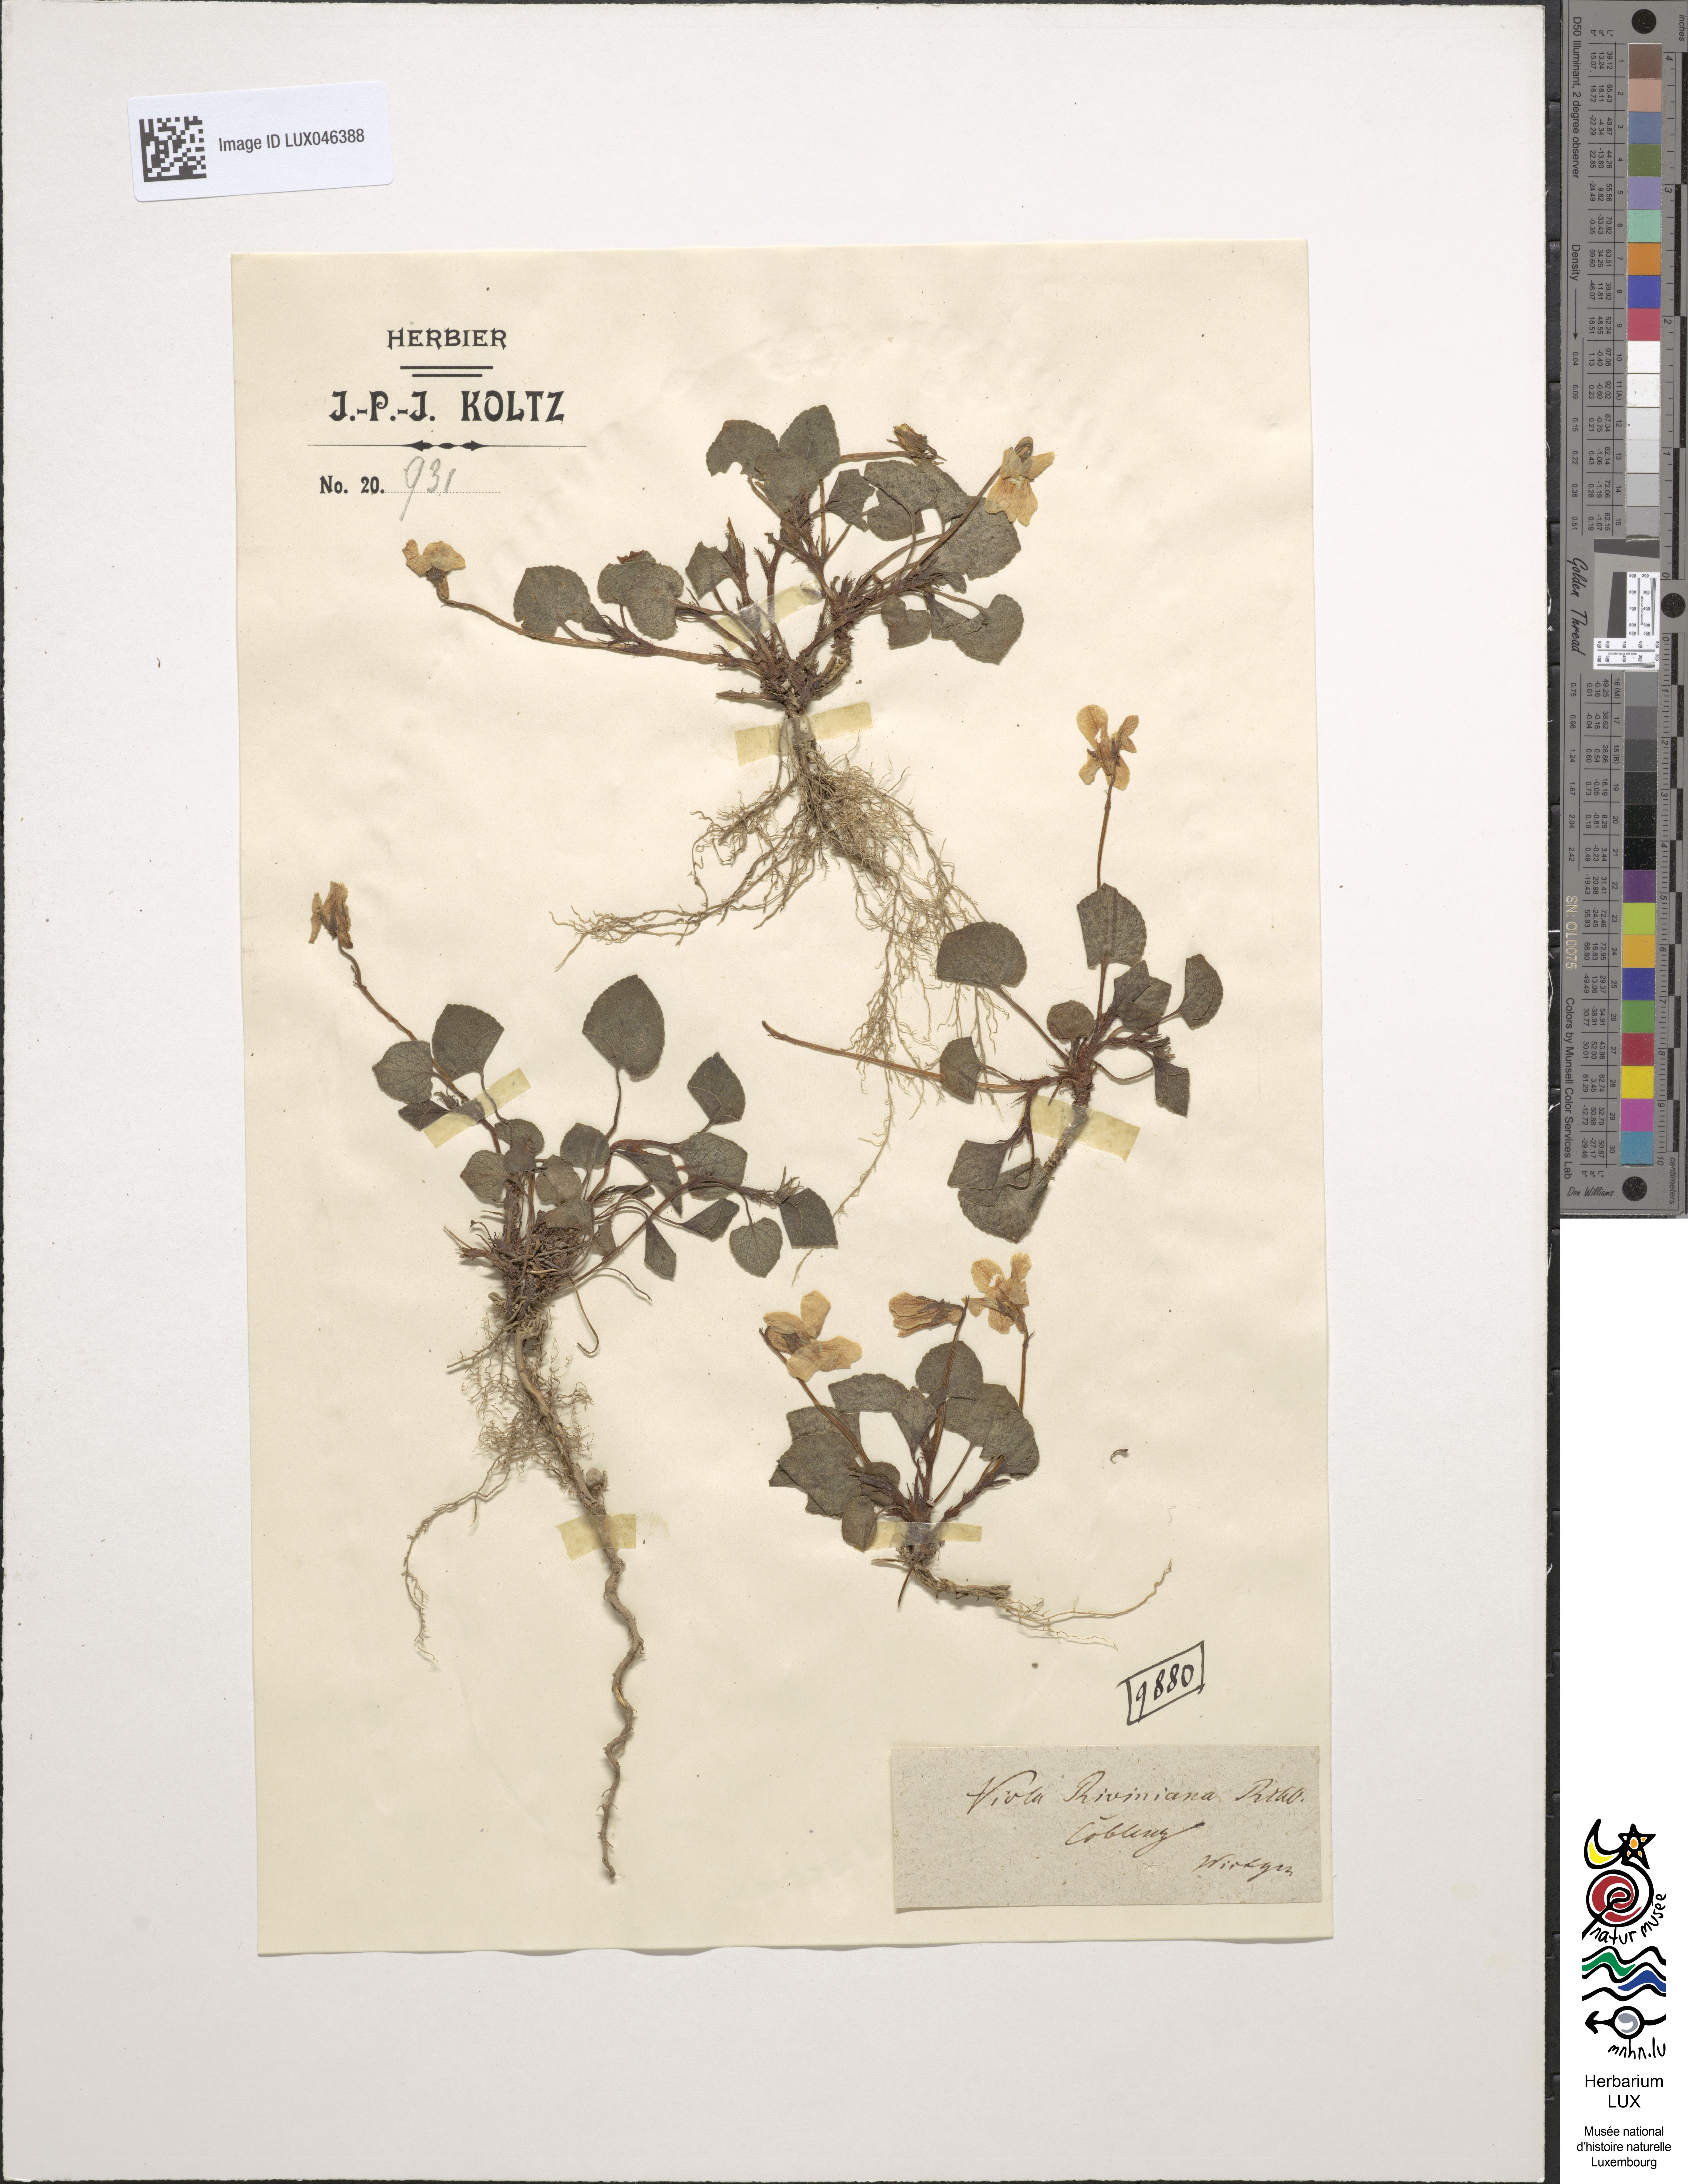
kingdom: Plantae
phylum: Tracheophyta
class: Magnoliopsida
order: Malpighiales
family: Violaceae
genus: Viola
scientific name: Viola riviniana
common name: Common dog-violet
